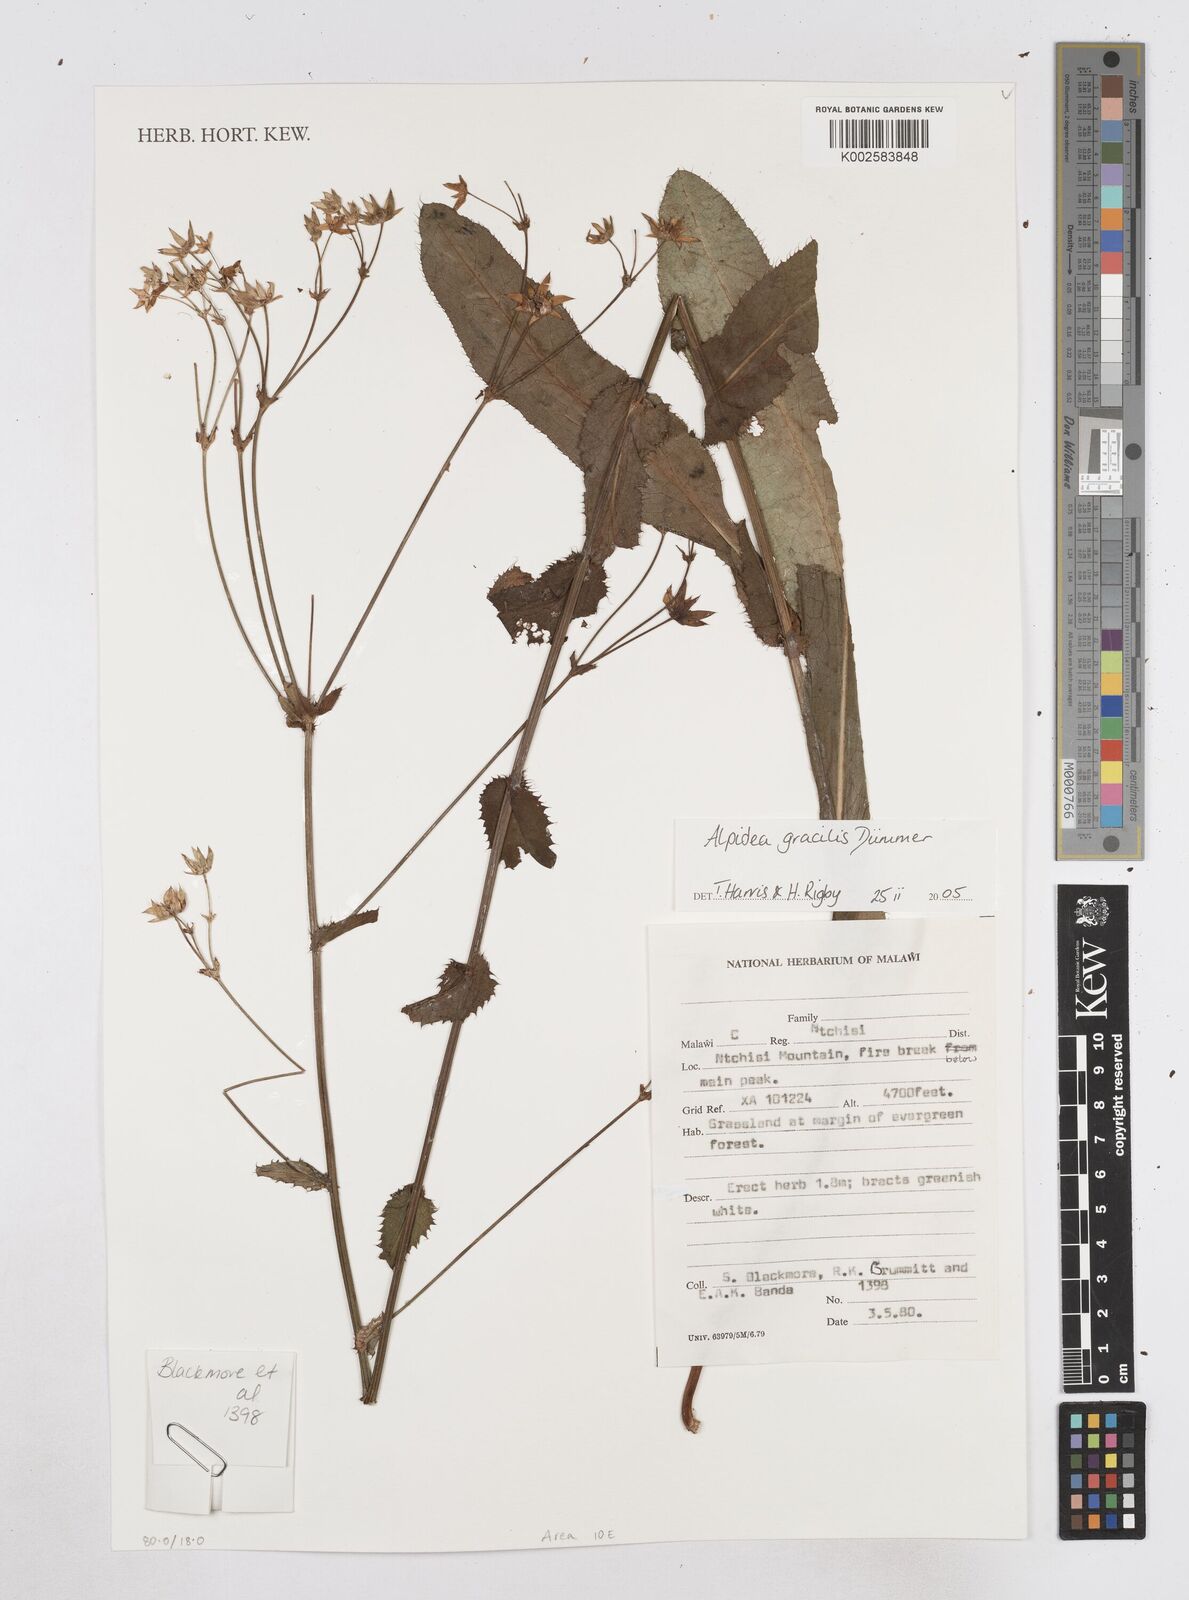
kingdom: Plantae
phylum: Tracheophyta
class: Magnoliopsida
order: Apiales
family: Apiaceae
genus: Alepidea
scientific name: Alepidea peduncularis
